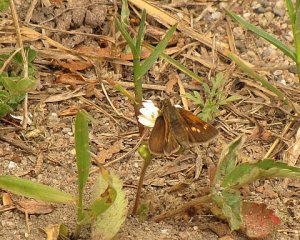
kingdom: Animalia
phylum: Arthropoda
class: Insecta
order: Lepidoptera
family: Hesperiidae
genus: Polites
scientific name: Polites themistocles
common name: Tawny-edged Skipper
